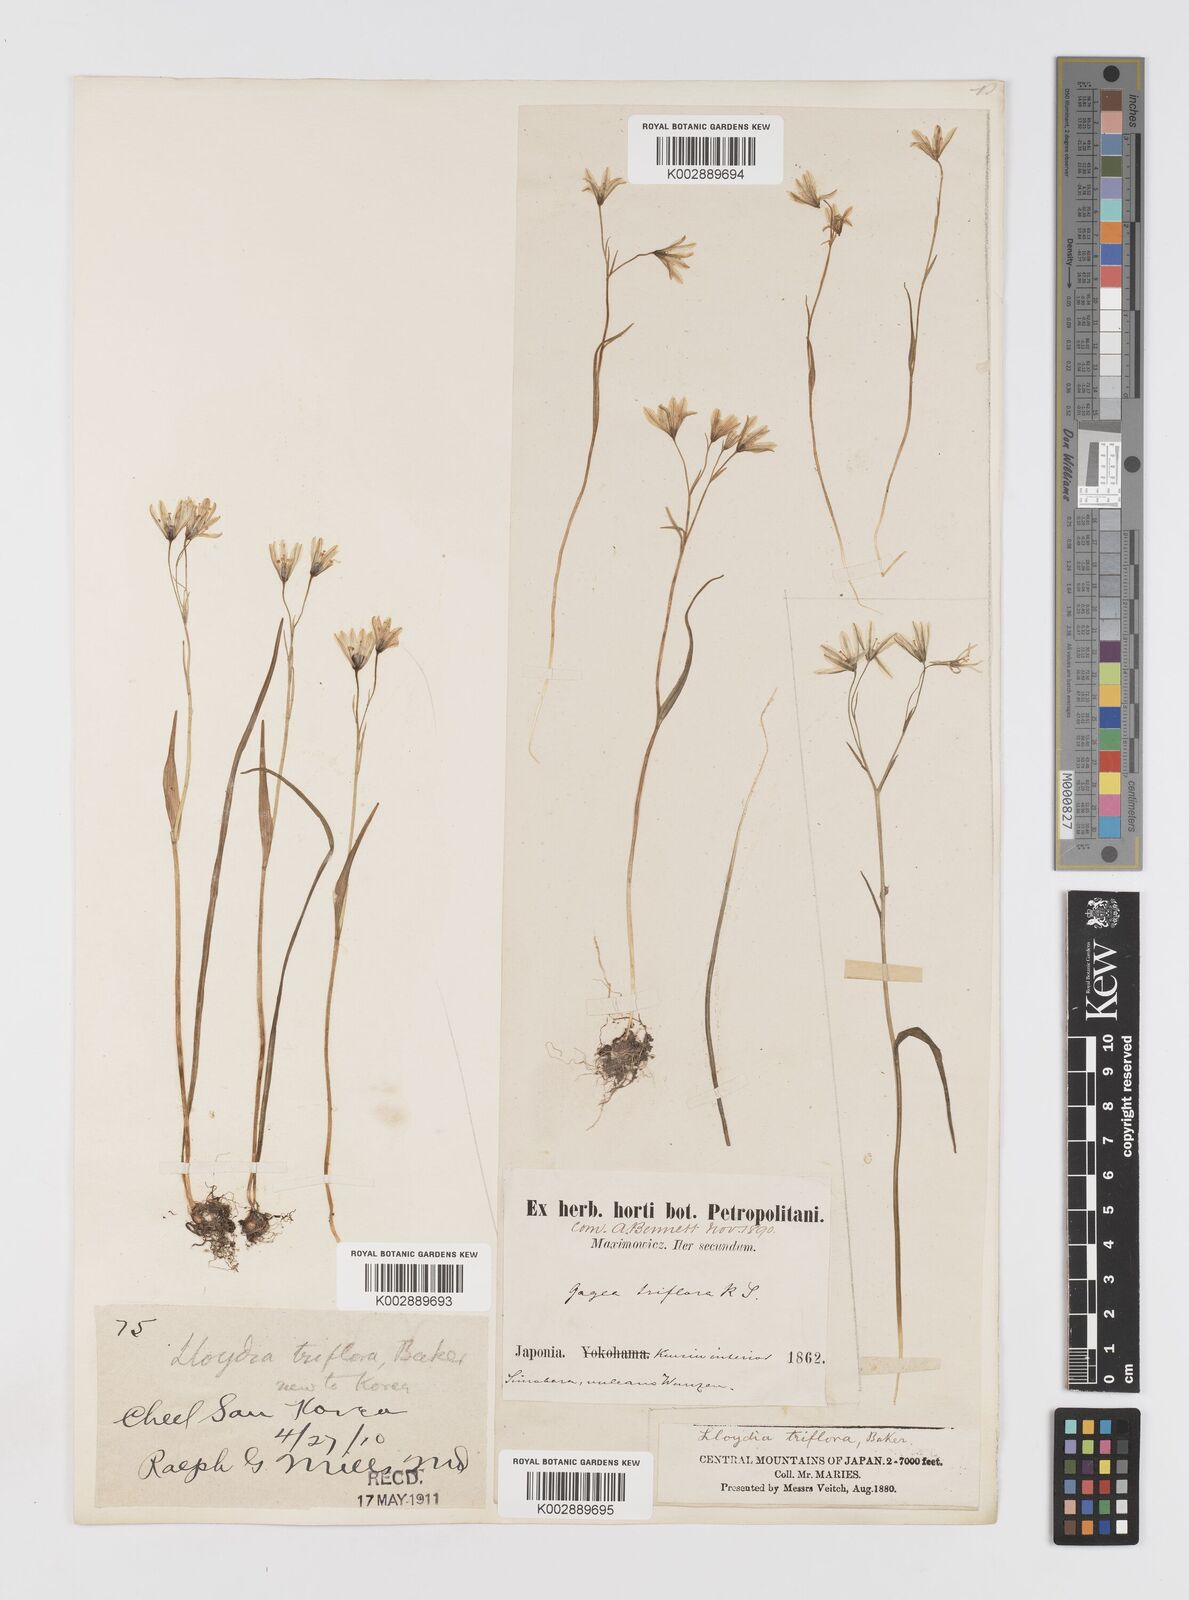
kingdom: Plantae
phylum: Tracheophyta
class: Liliopsida
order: Liliales
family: Liliaceae
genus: Gagea
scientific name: Gagea triflora
